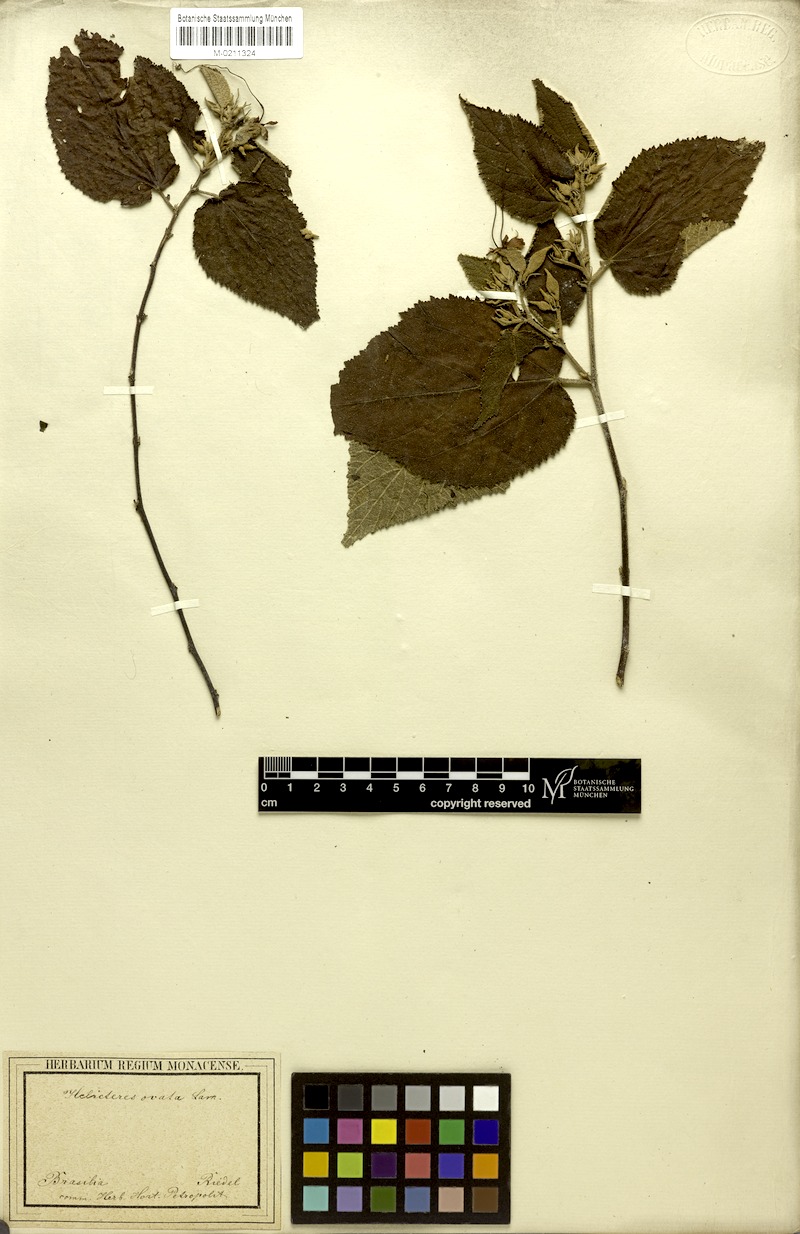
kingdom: Plantae
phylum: Tracheophyta
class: Magnoliopsida
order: Malvales
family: Malvaceae
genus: Helicteres
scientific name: Helicteres ovata
